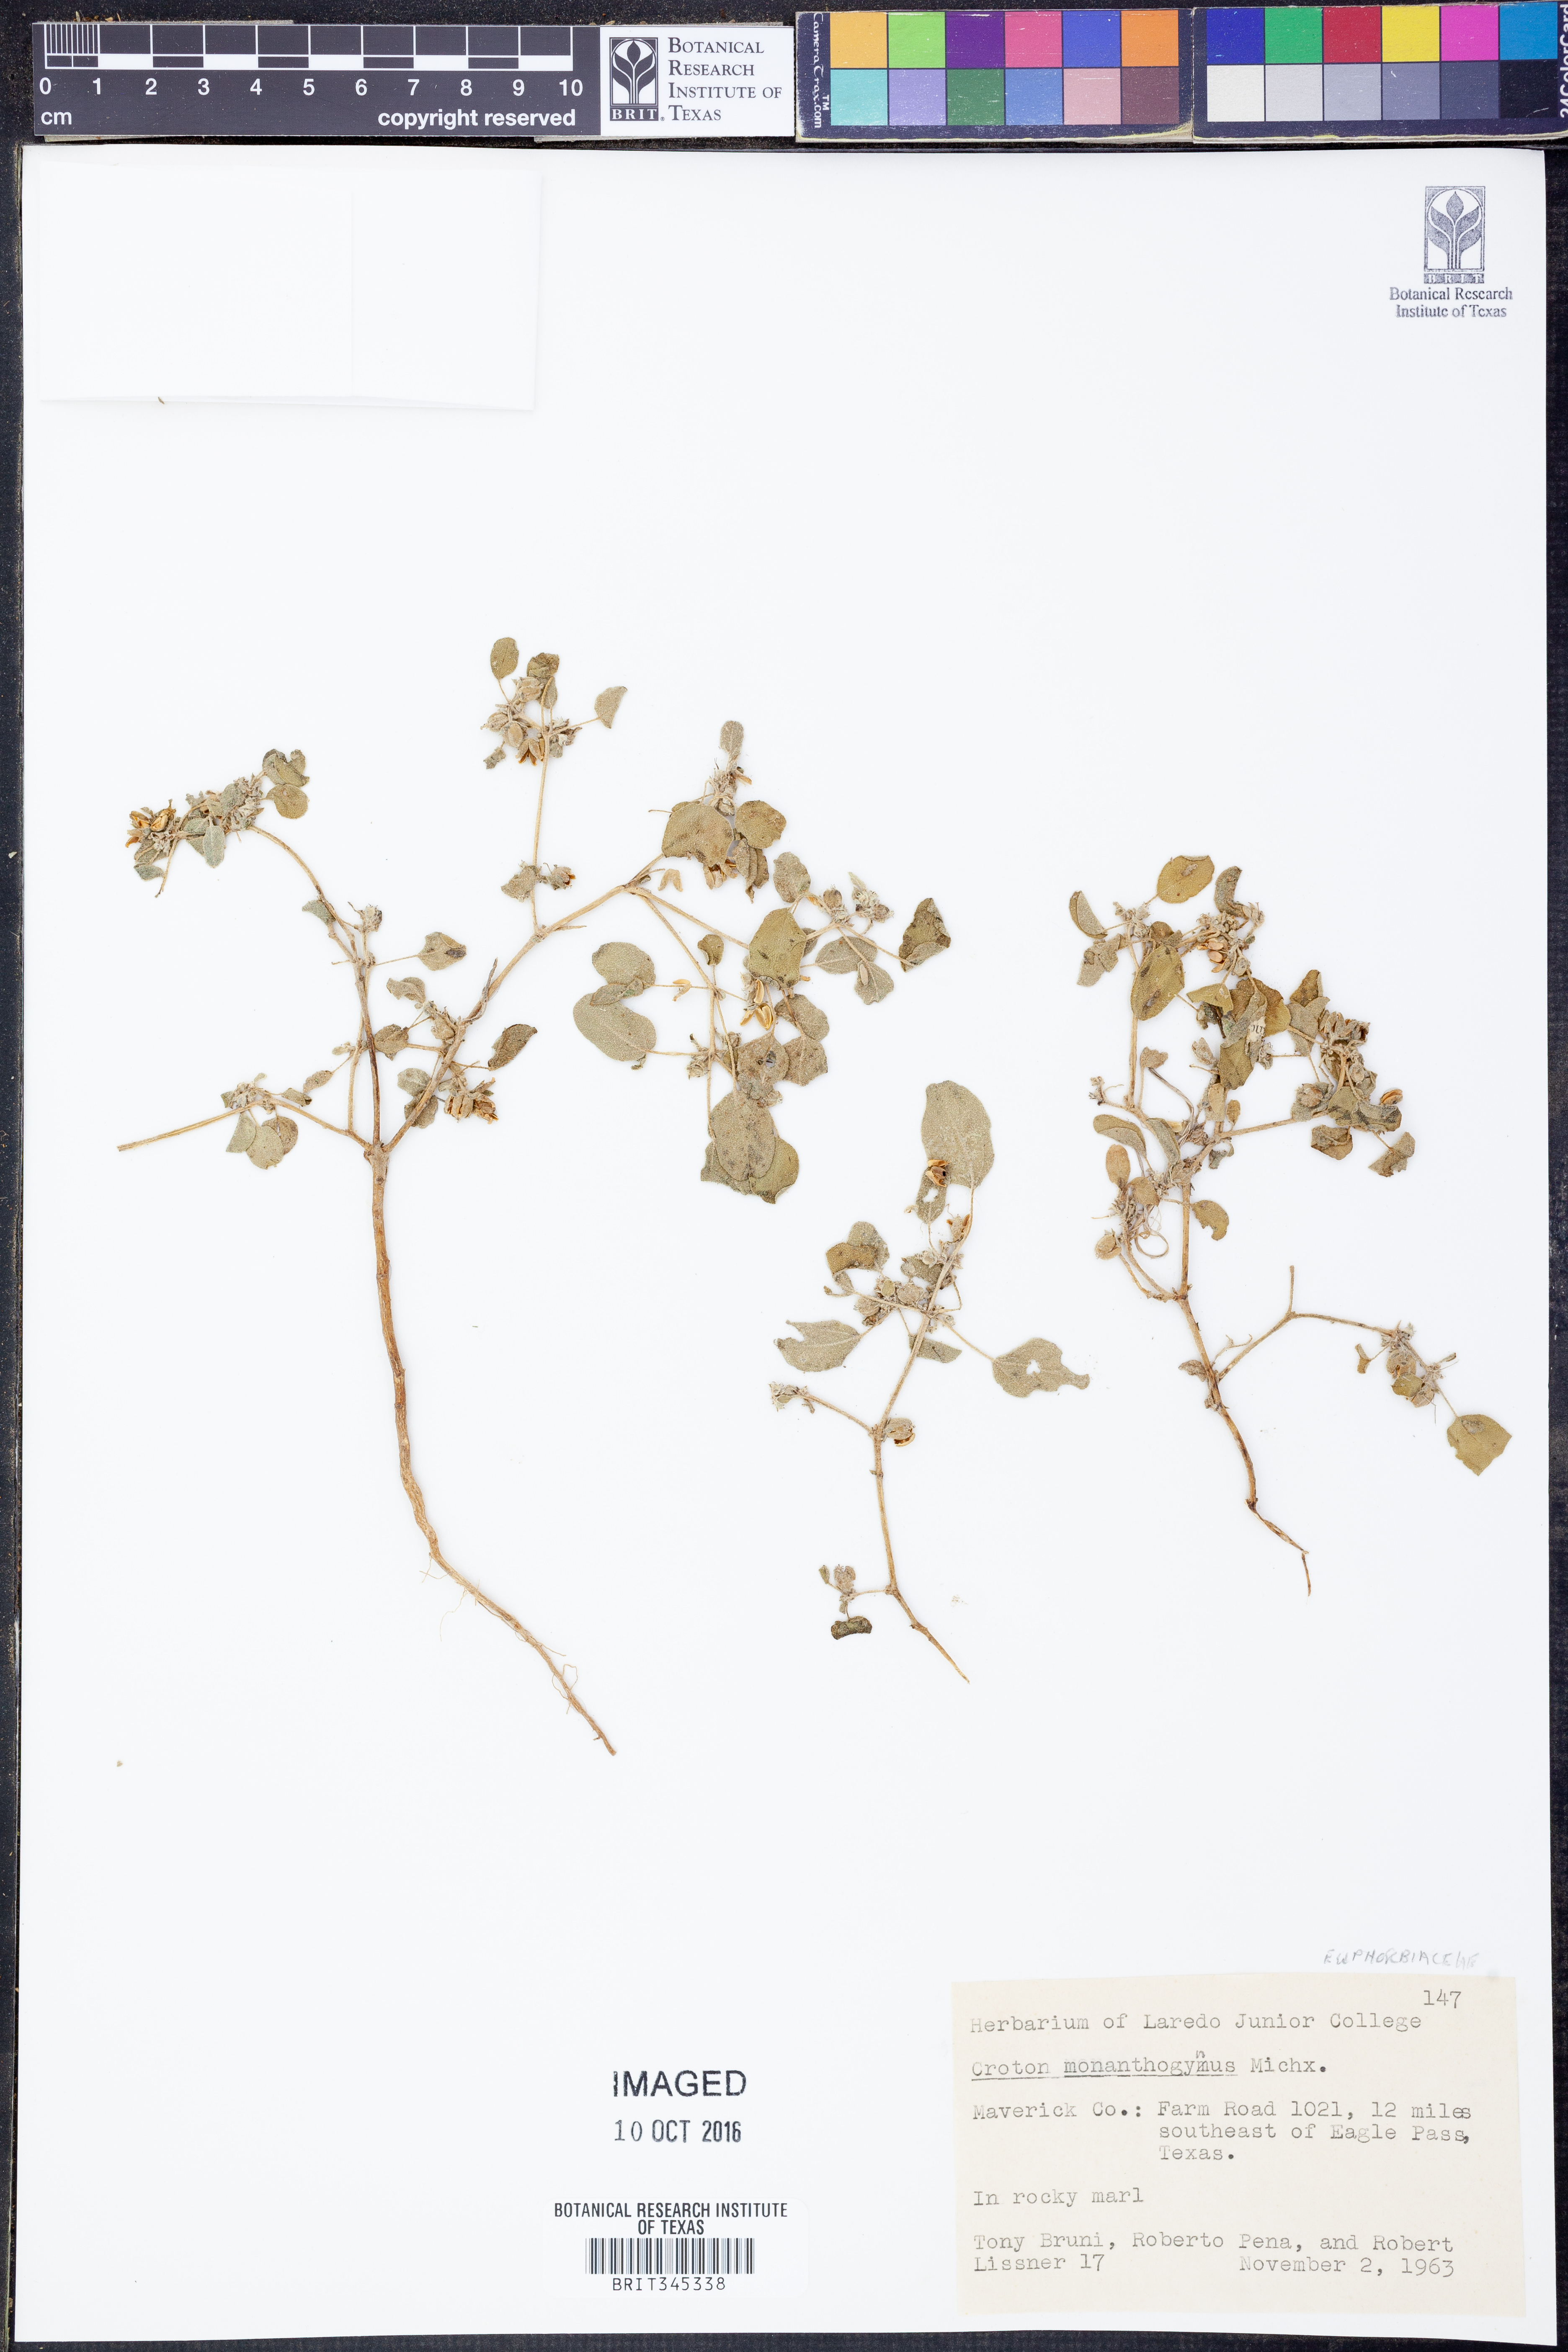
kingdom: Plantae
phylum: Tracheophyta
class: Magnoliopsida
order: Malpighiales
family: Euphorbiaceae
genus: Croton
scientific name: Croton monanthogynus
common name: One-seed croton
